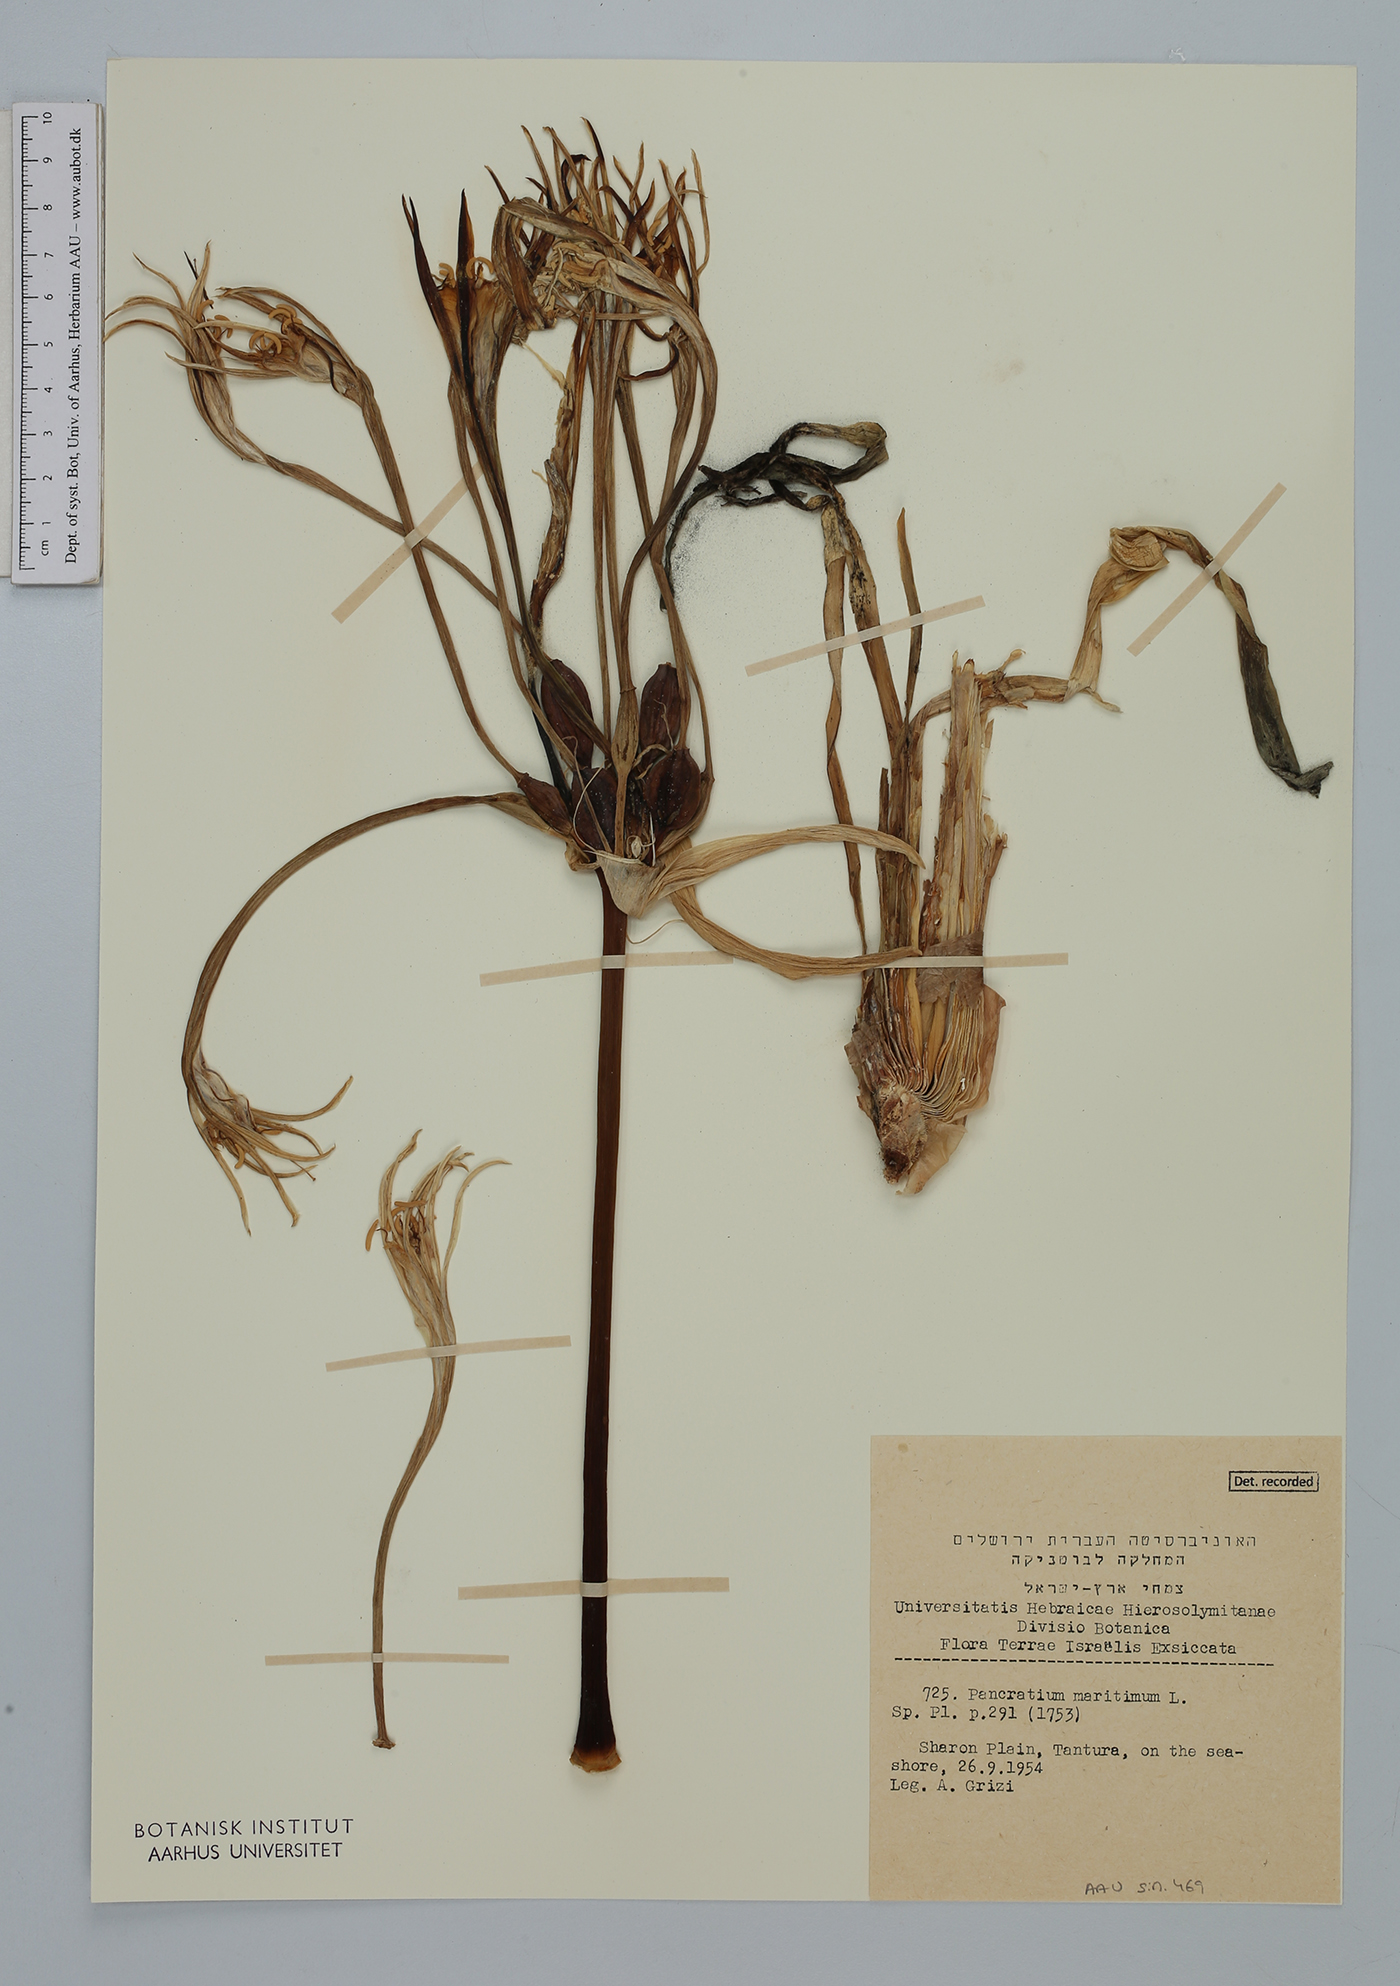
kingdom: Plantae
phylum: Tracheophyta
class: Liliopsida
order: Asparagales
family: Amaryllidaceae
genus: Pancratium
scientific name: Pancratium maritimum
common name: Sea-daffodil
